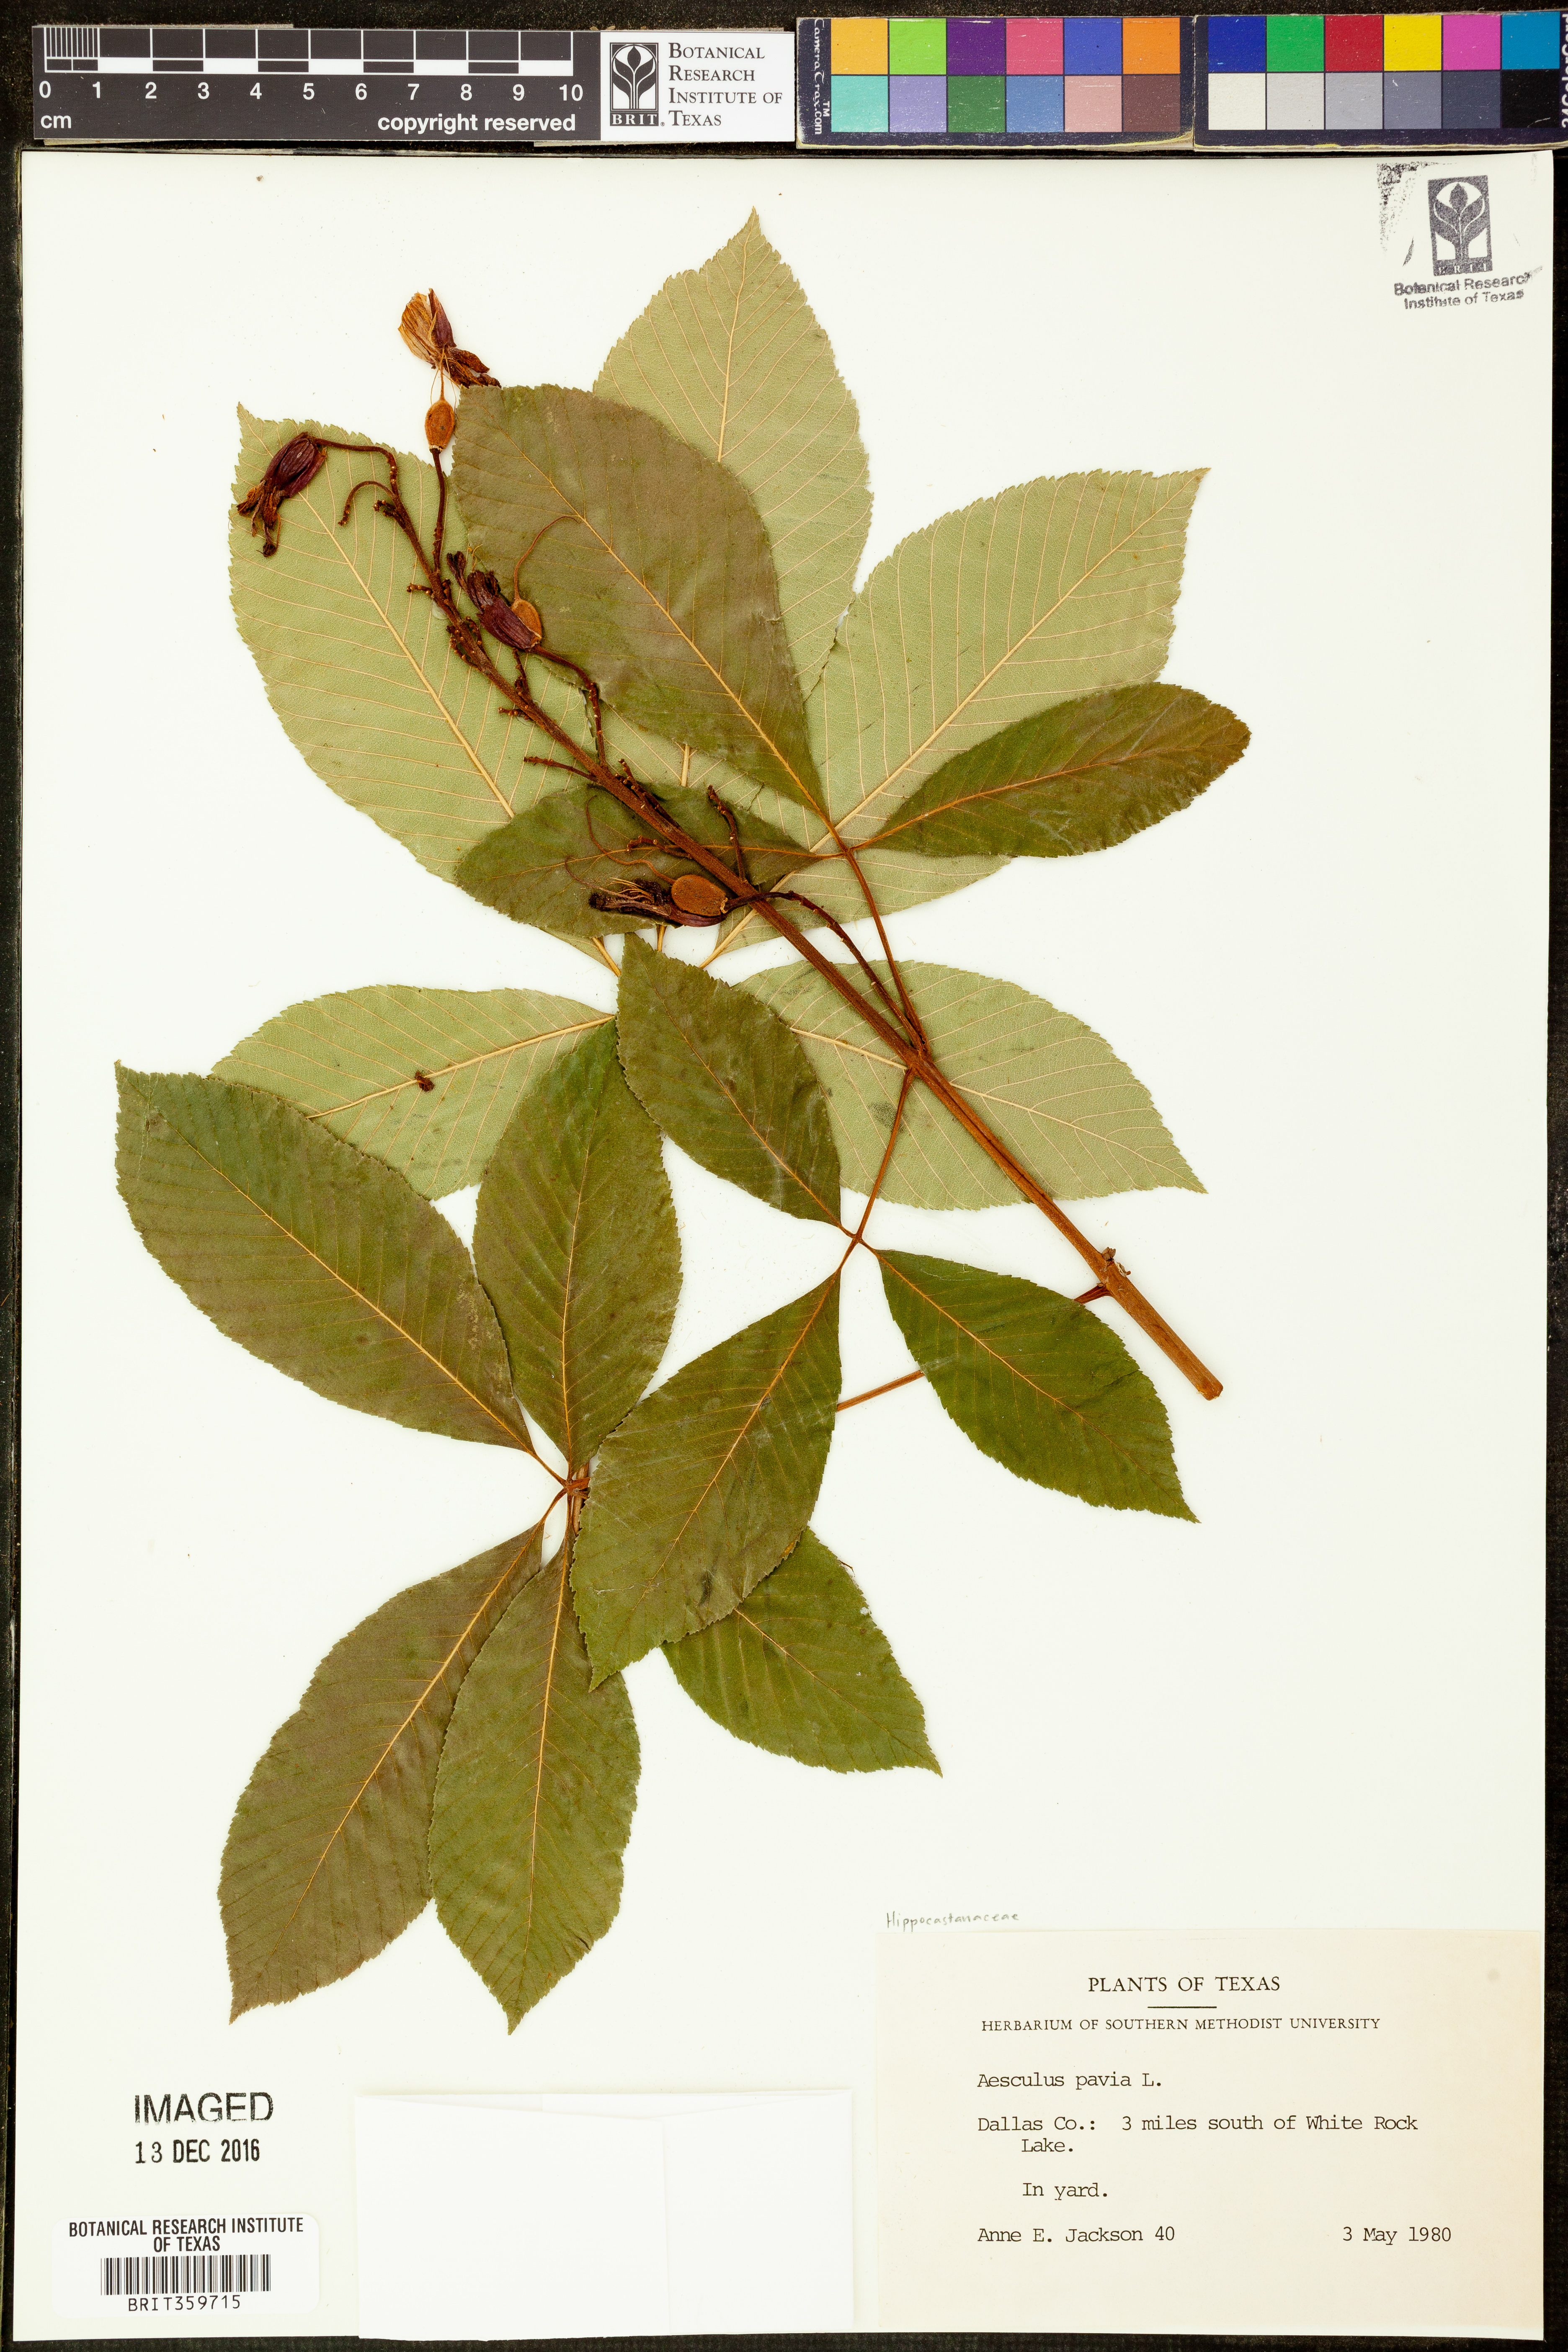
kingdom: Plantae
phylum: Tracheophyta
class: Magnoliopsida
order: Sapindales
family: Sapindaceae
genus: Aesculus
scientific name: Aesculus pavia
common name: Red buckeye
